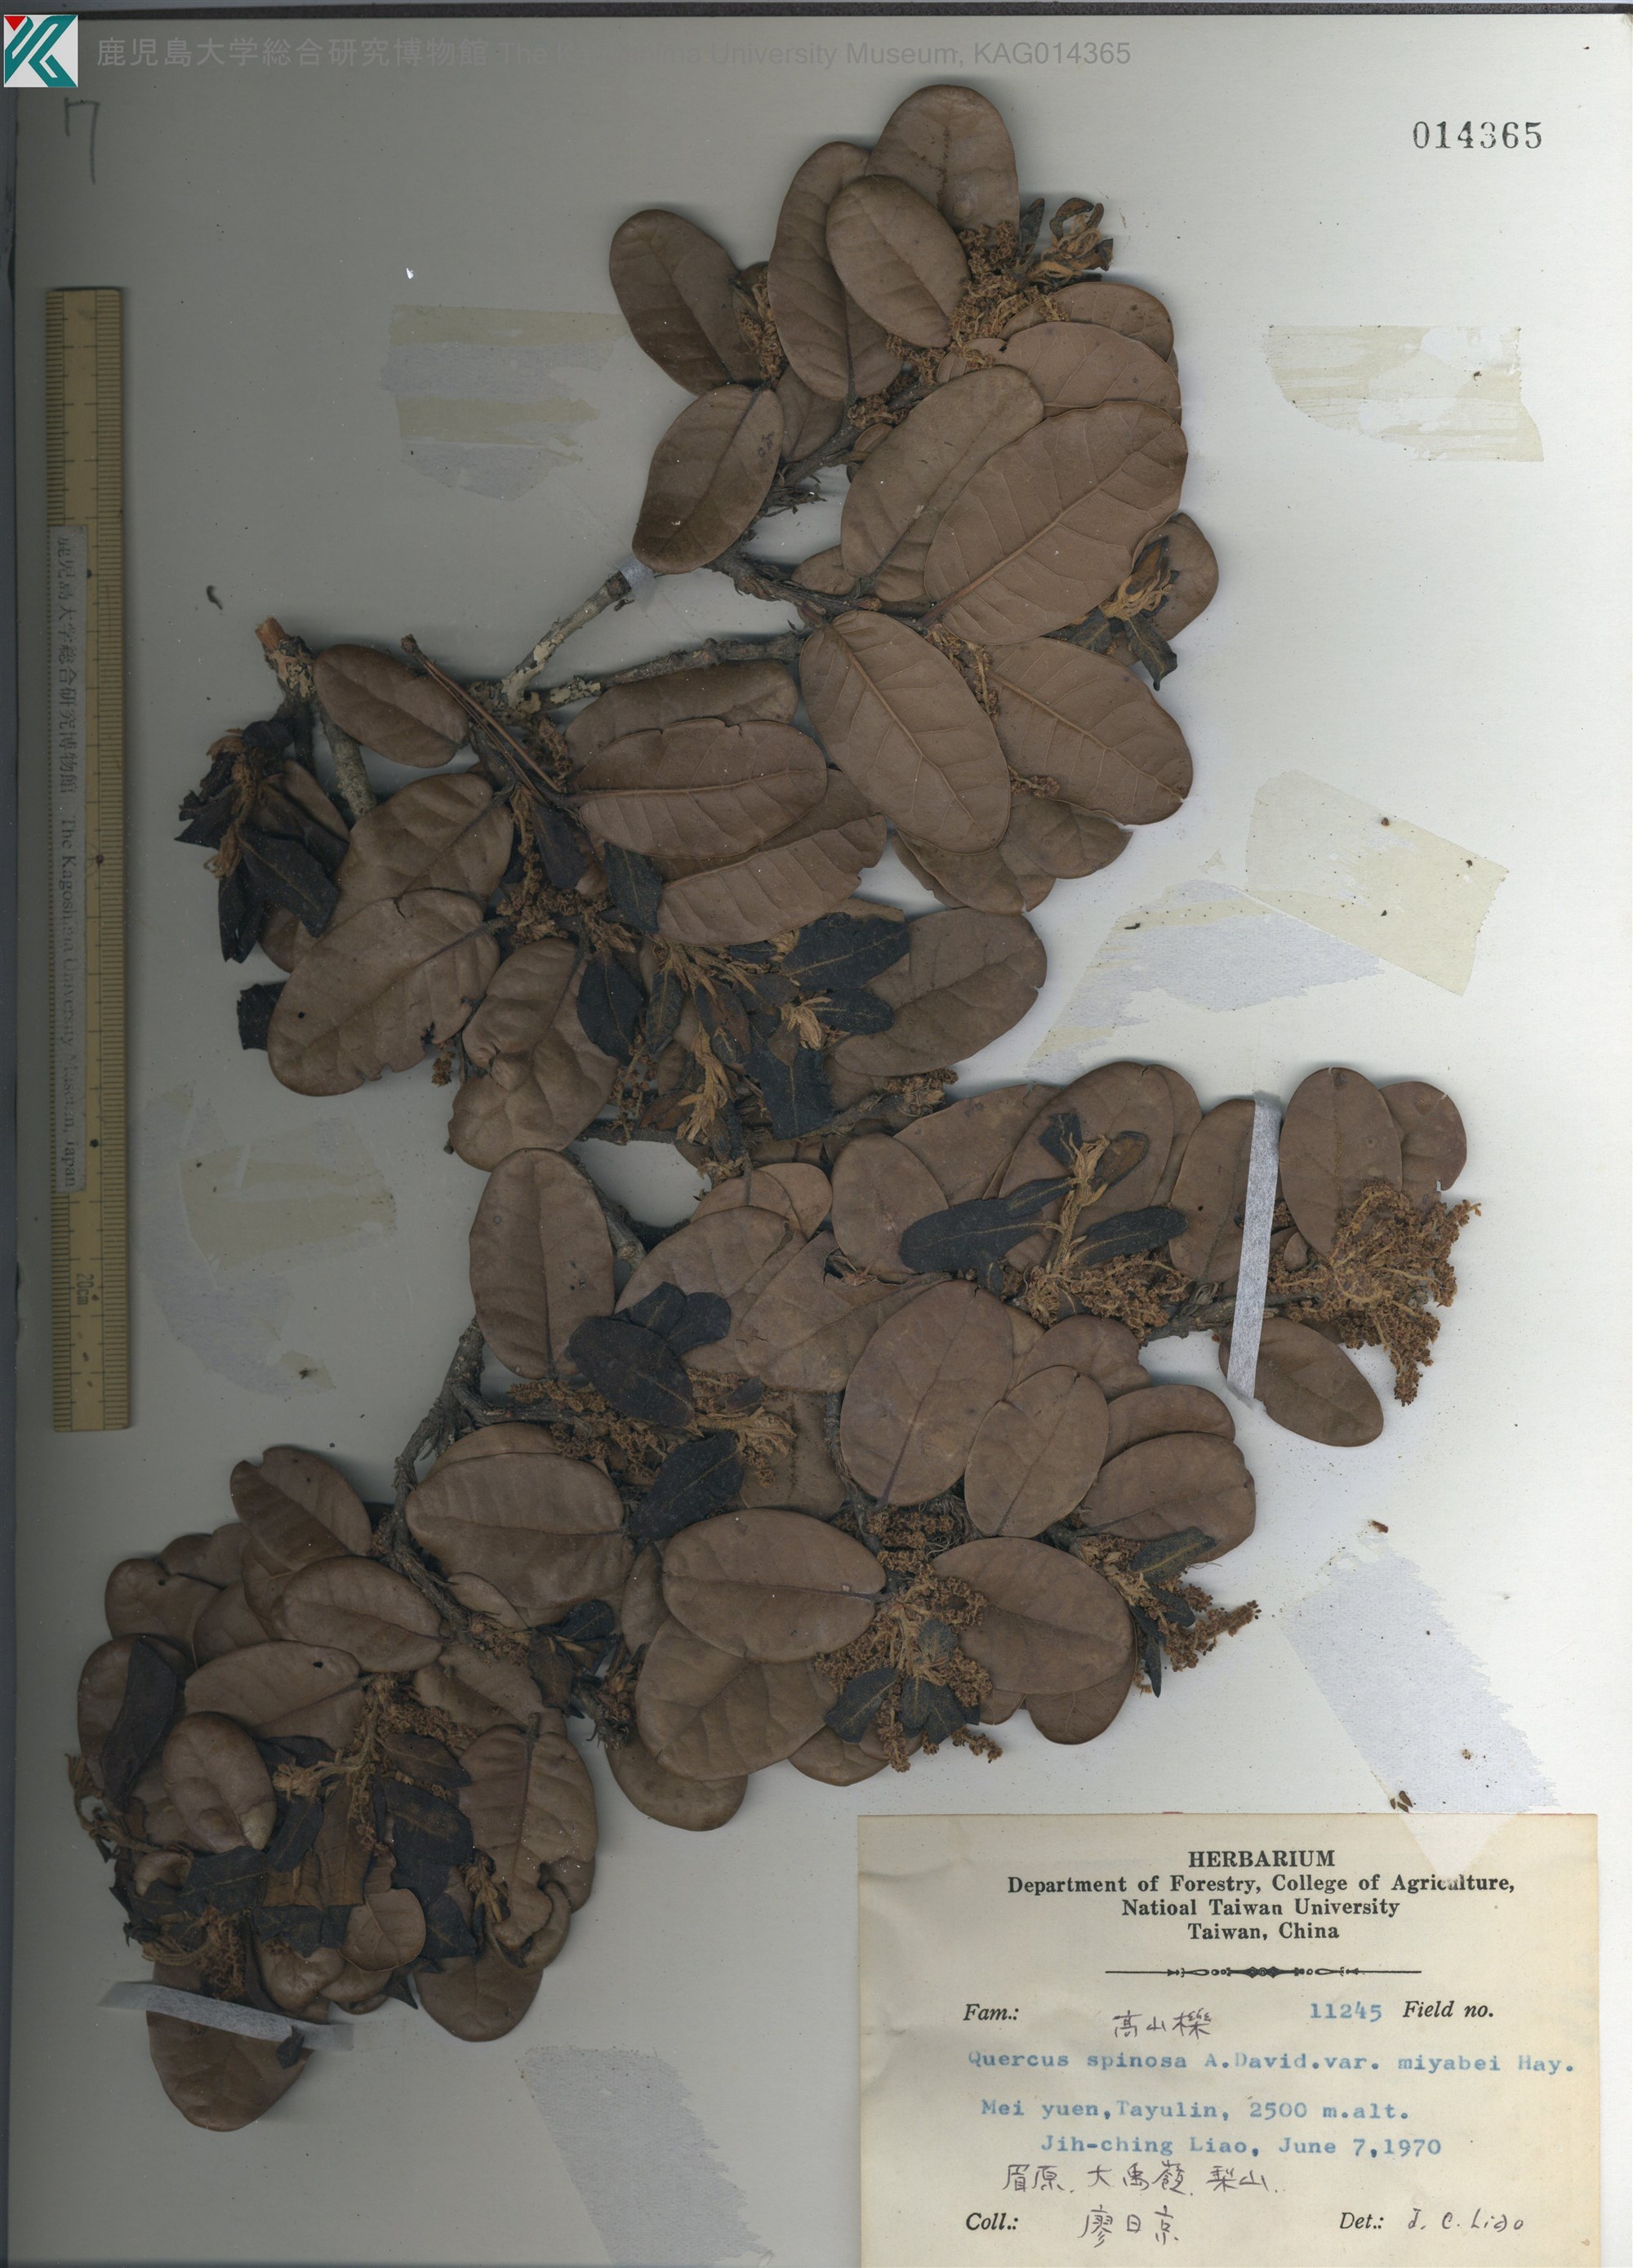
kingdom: Plantae
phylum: Tracheophyta
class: Magnoliopsida
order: Fagales
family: Fagaceae
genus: Quercus
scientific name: Quercus spinosa
